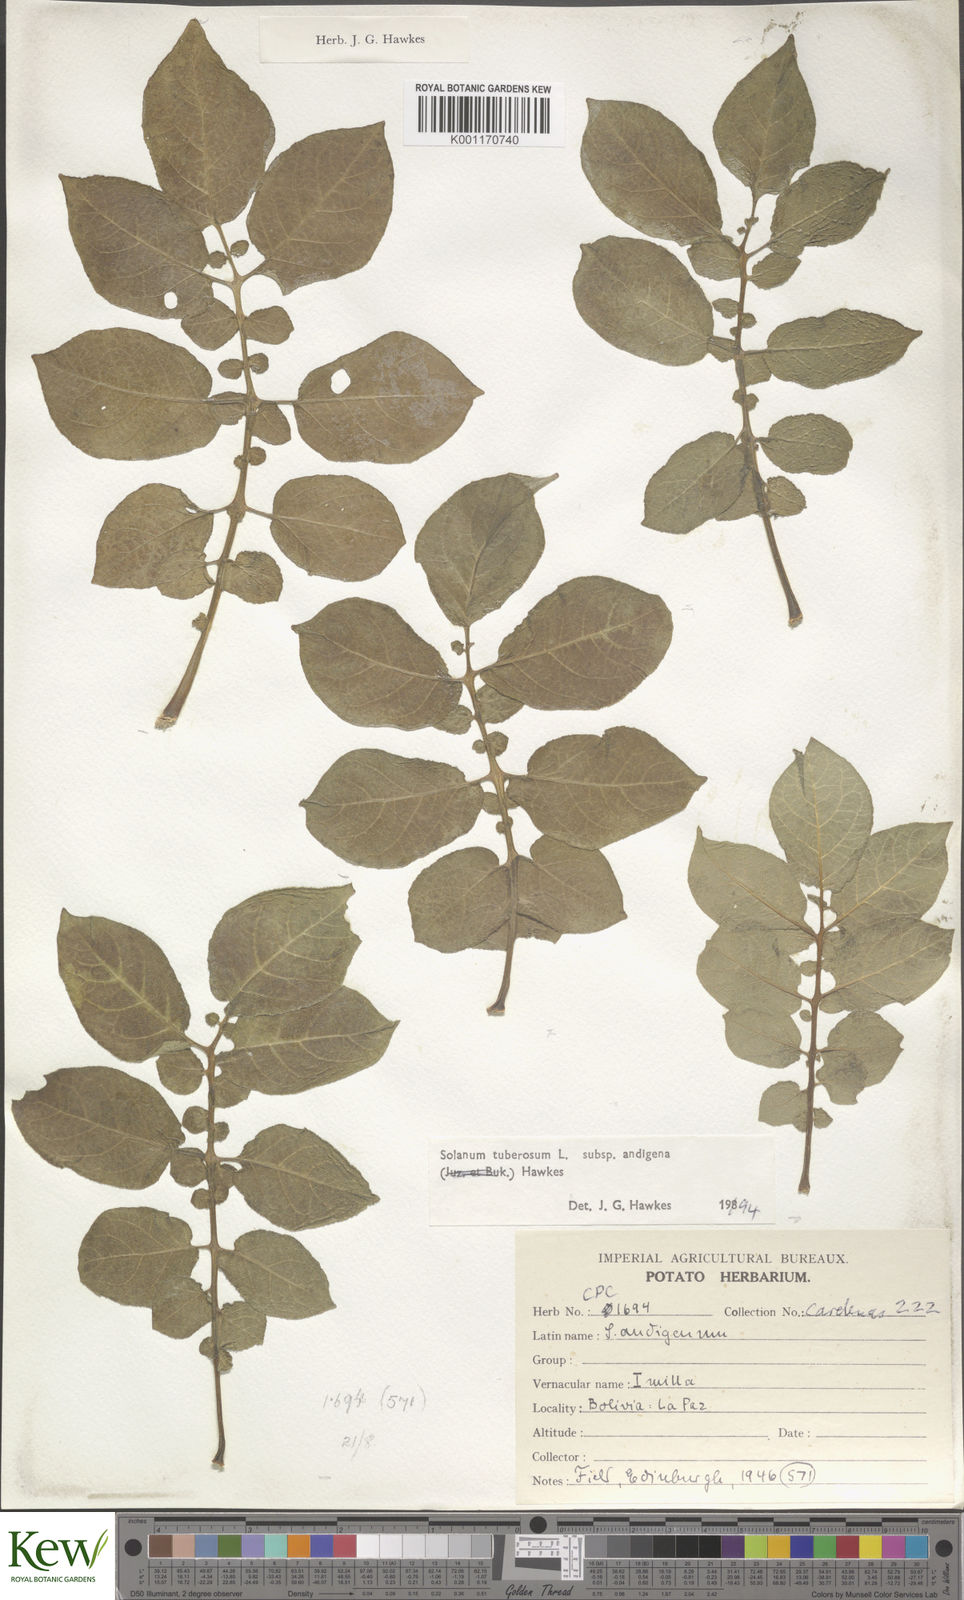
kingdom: Plantae
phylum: Tracheophyta
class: Magnoliopsida
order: Solanales
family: Solanaceae
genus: Solanum
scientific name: Solanum tuberosum
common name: Potato
